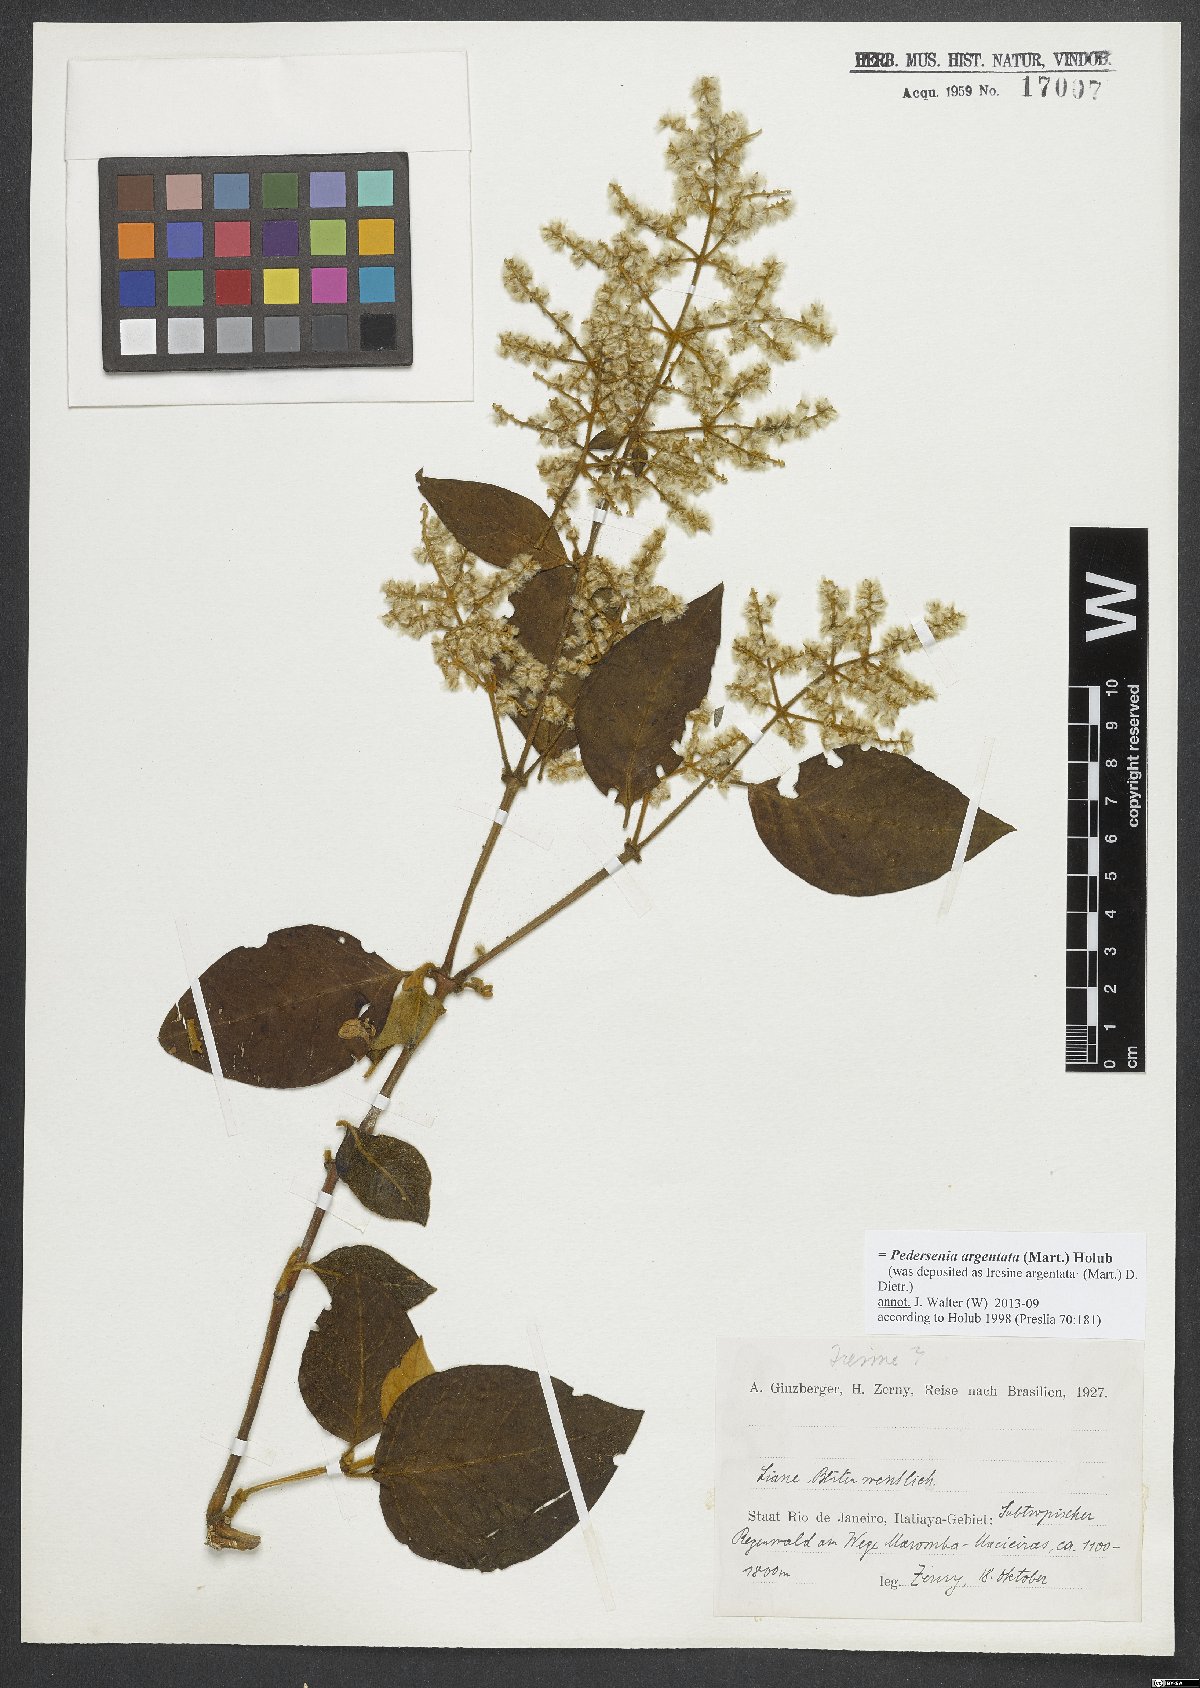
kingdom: Plantae
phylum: Tracheophyta
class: Magnoliopsida
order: Caryophyllales
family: Amaranthaceae
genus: Pedersenia
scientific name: Pedersenia argentata
